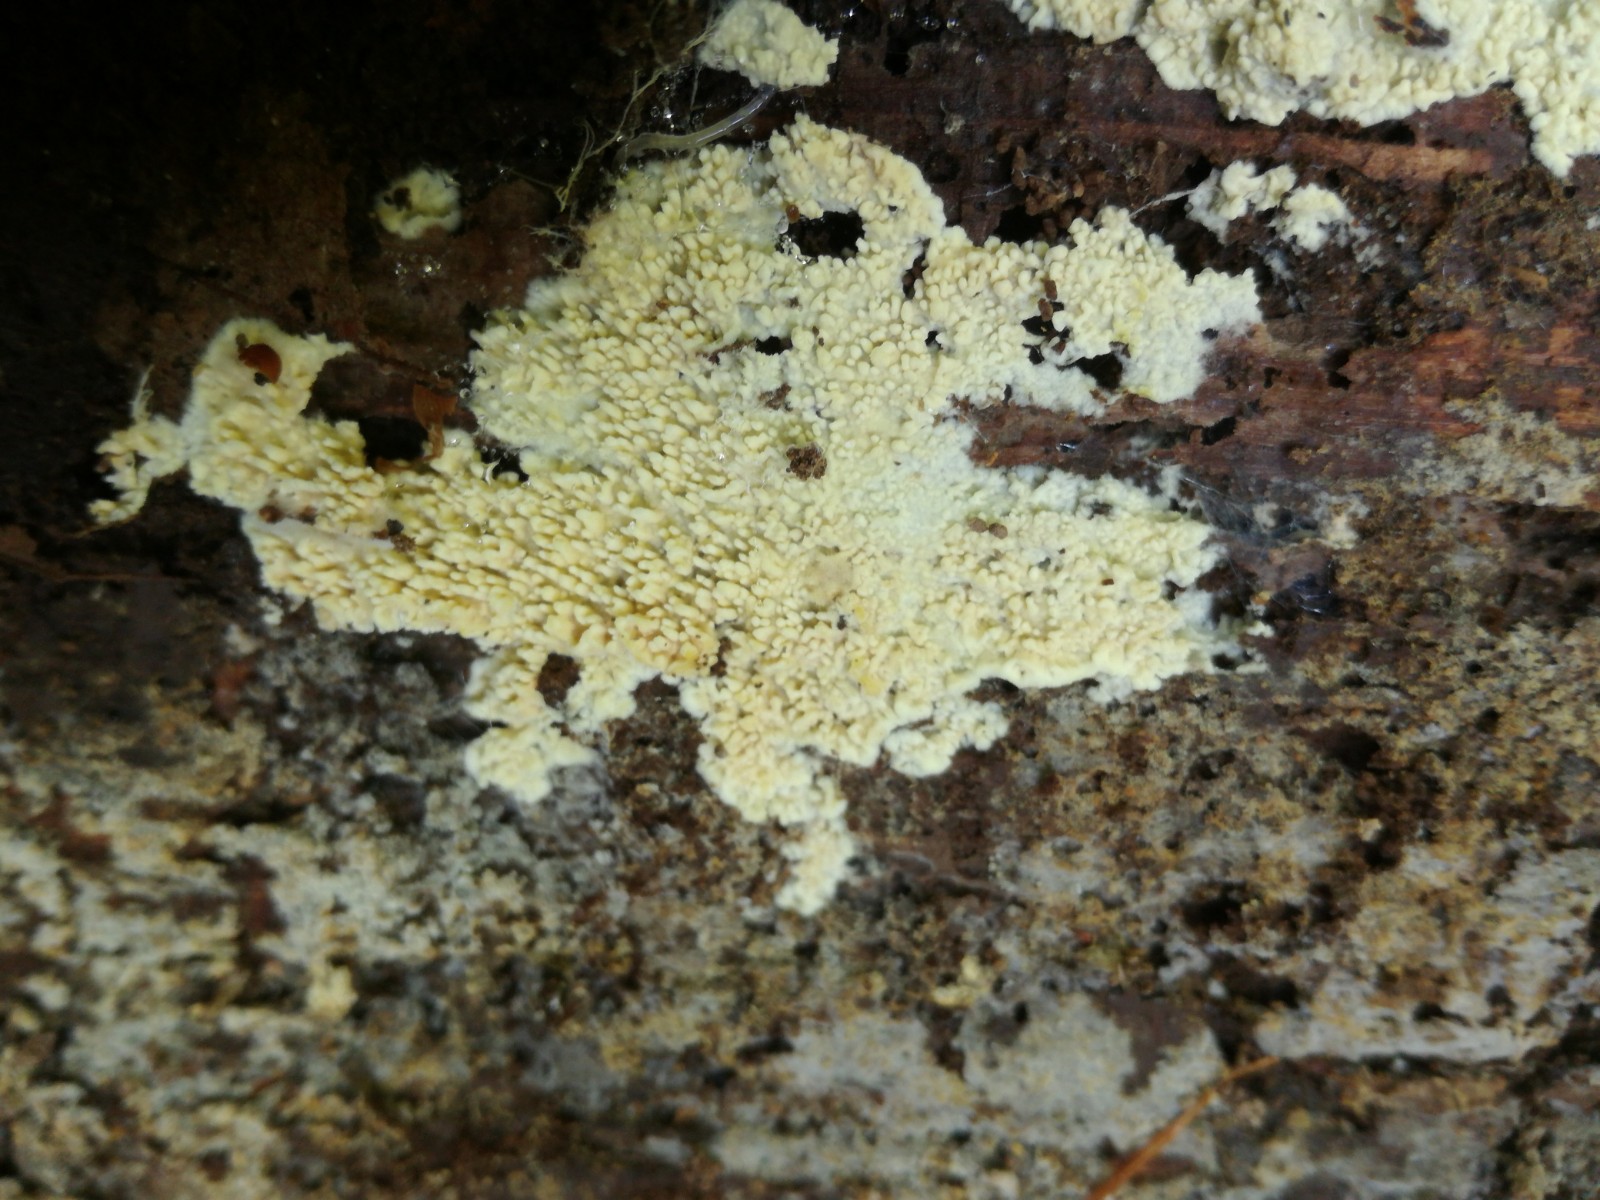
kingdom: Fungi
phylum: Basidiomycota
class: Agaricomycetes
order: Agaricales
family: Stephanosporaceae
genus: Cristinia
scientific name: Cristinia eichleri
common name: tandet citrushinde
